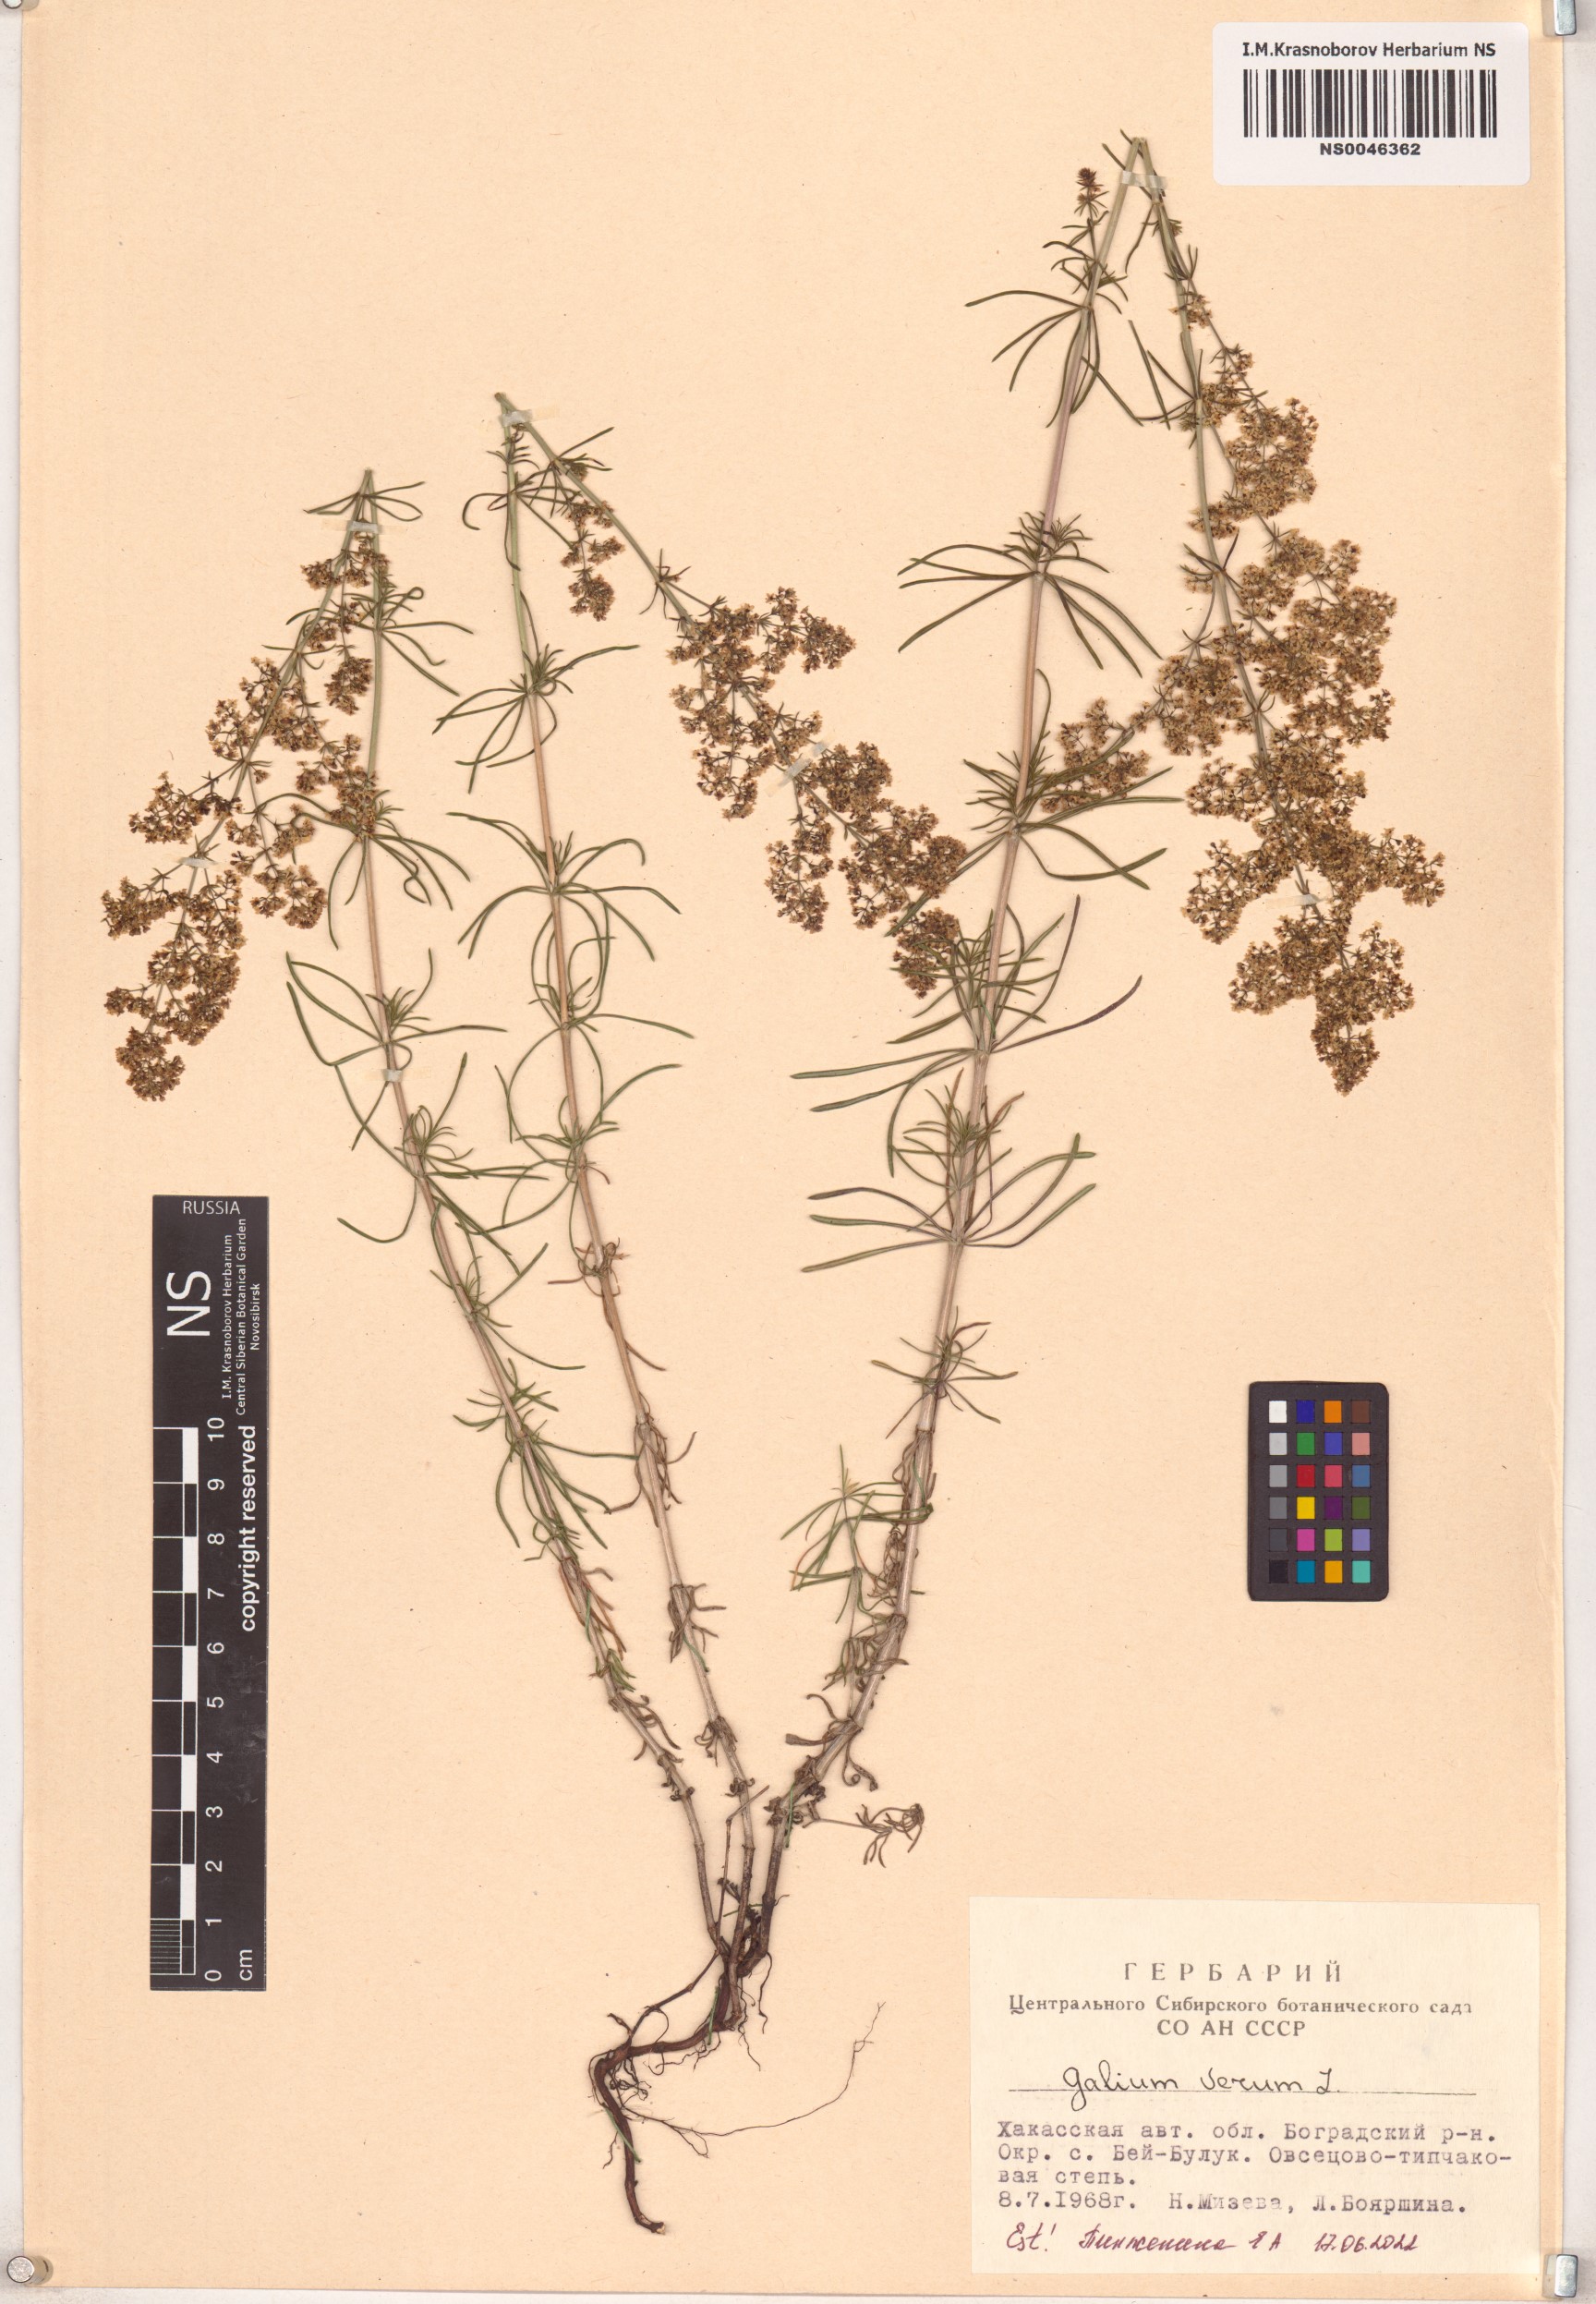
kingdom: Plantae
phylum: Tracheophyta
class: Magnoliopsida
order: Gentianales
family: Rubiaceae
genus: Galium
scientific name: Galium verum
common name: Lady's bedstraw
